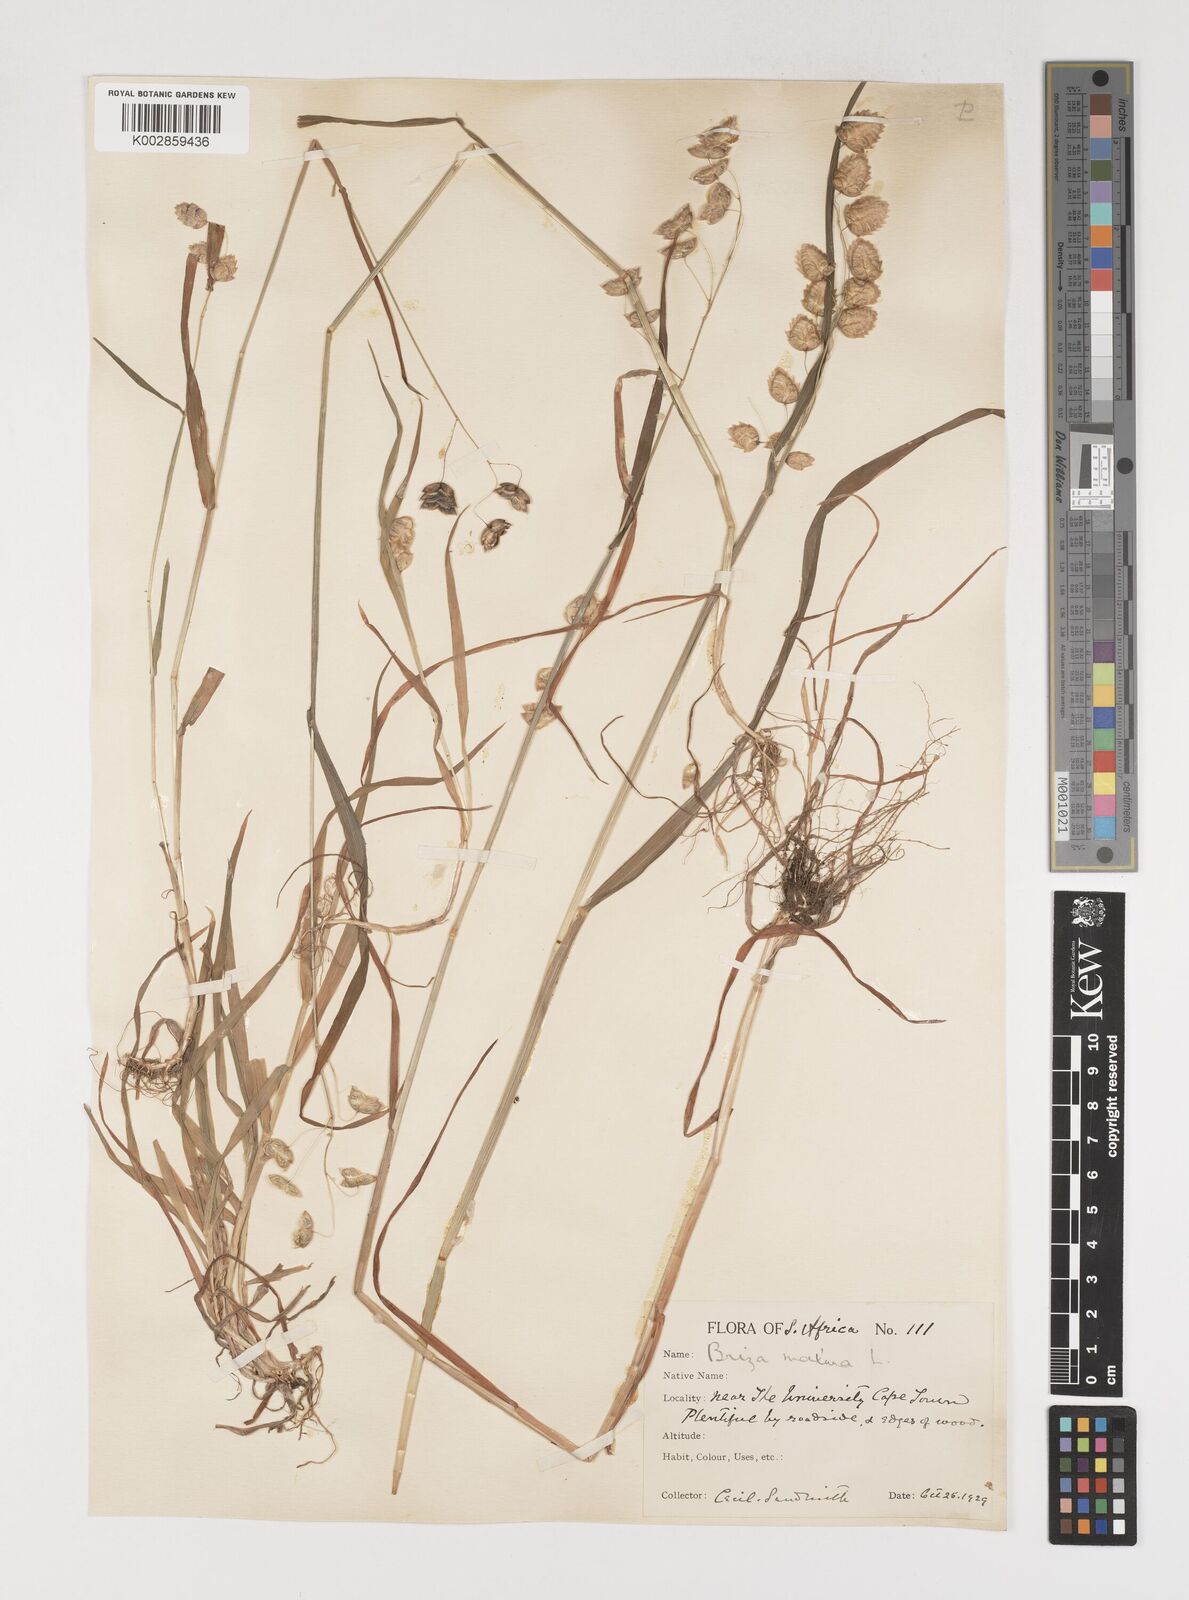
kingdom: Plantae
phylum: Tracheophyta
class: Liliopsida
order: Poales
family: Poaceae
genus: Briza
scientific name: Briza maxima
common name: Big quakinggrass
